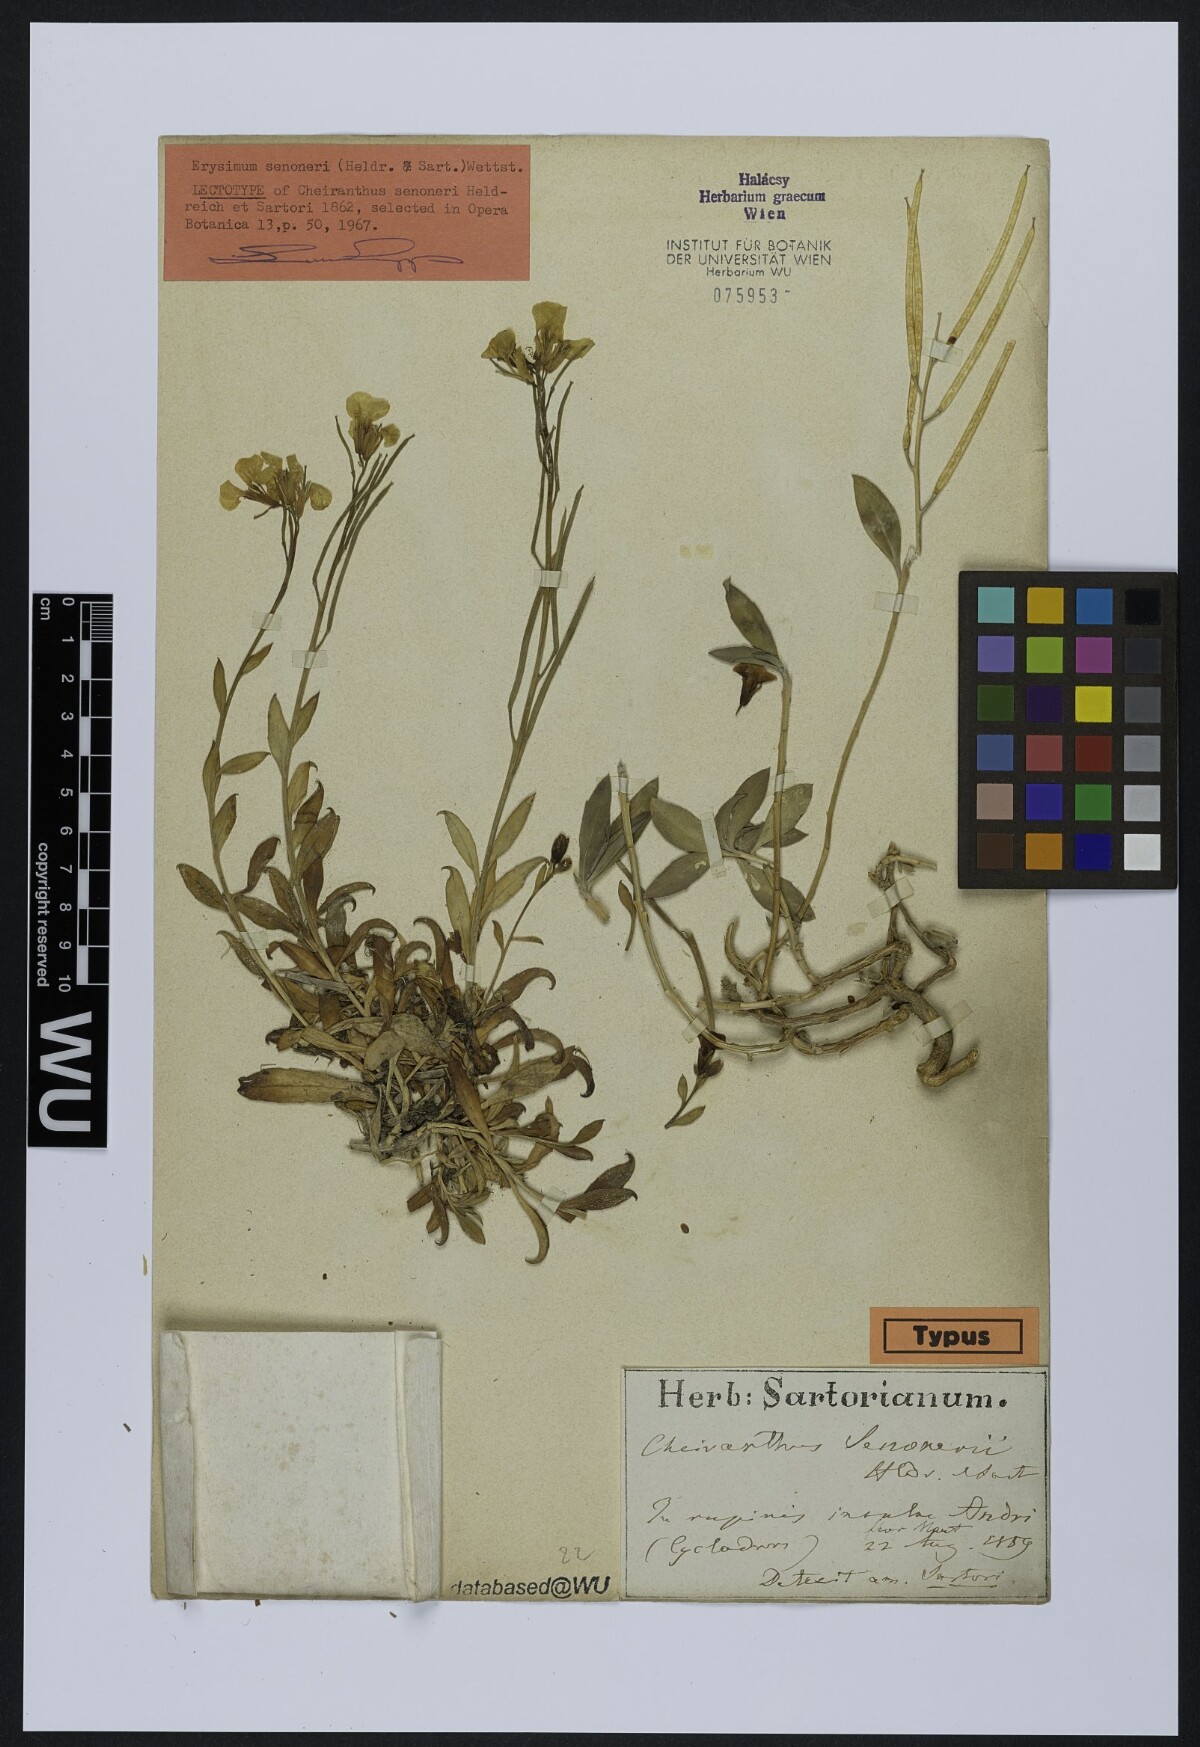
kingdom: Plantae
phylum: Tracheophyta
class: Magnoliopsida
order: Brassicales
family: Brassicaceae
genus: Erysimum
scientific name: Erysimum senoneri
